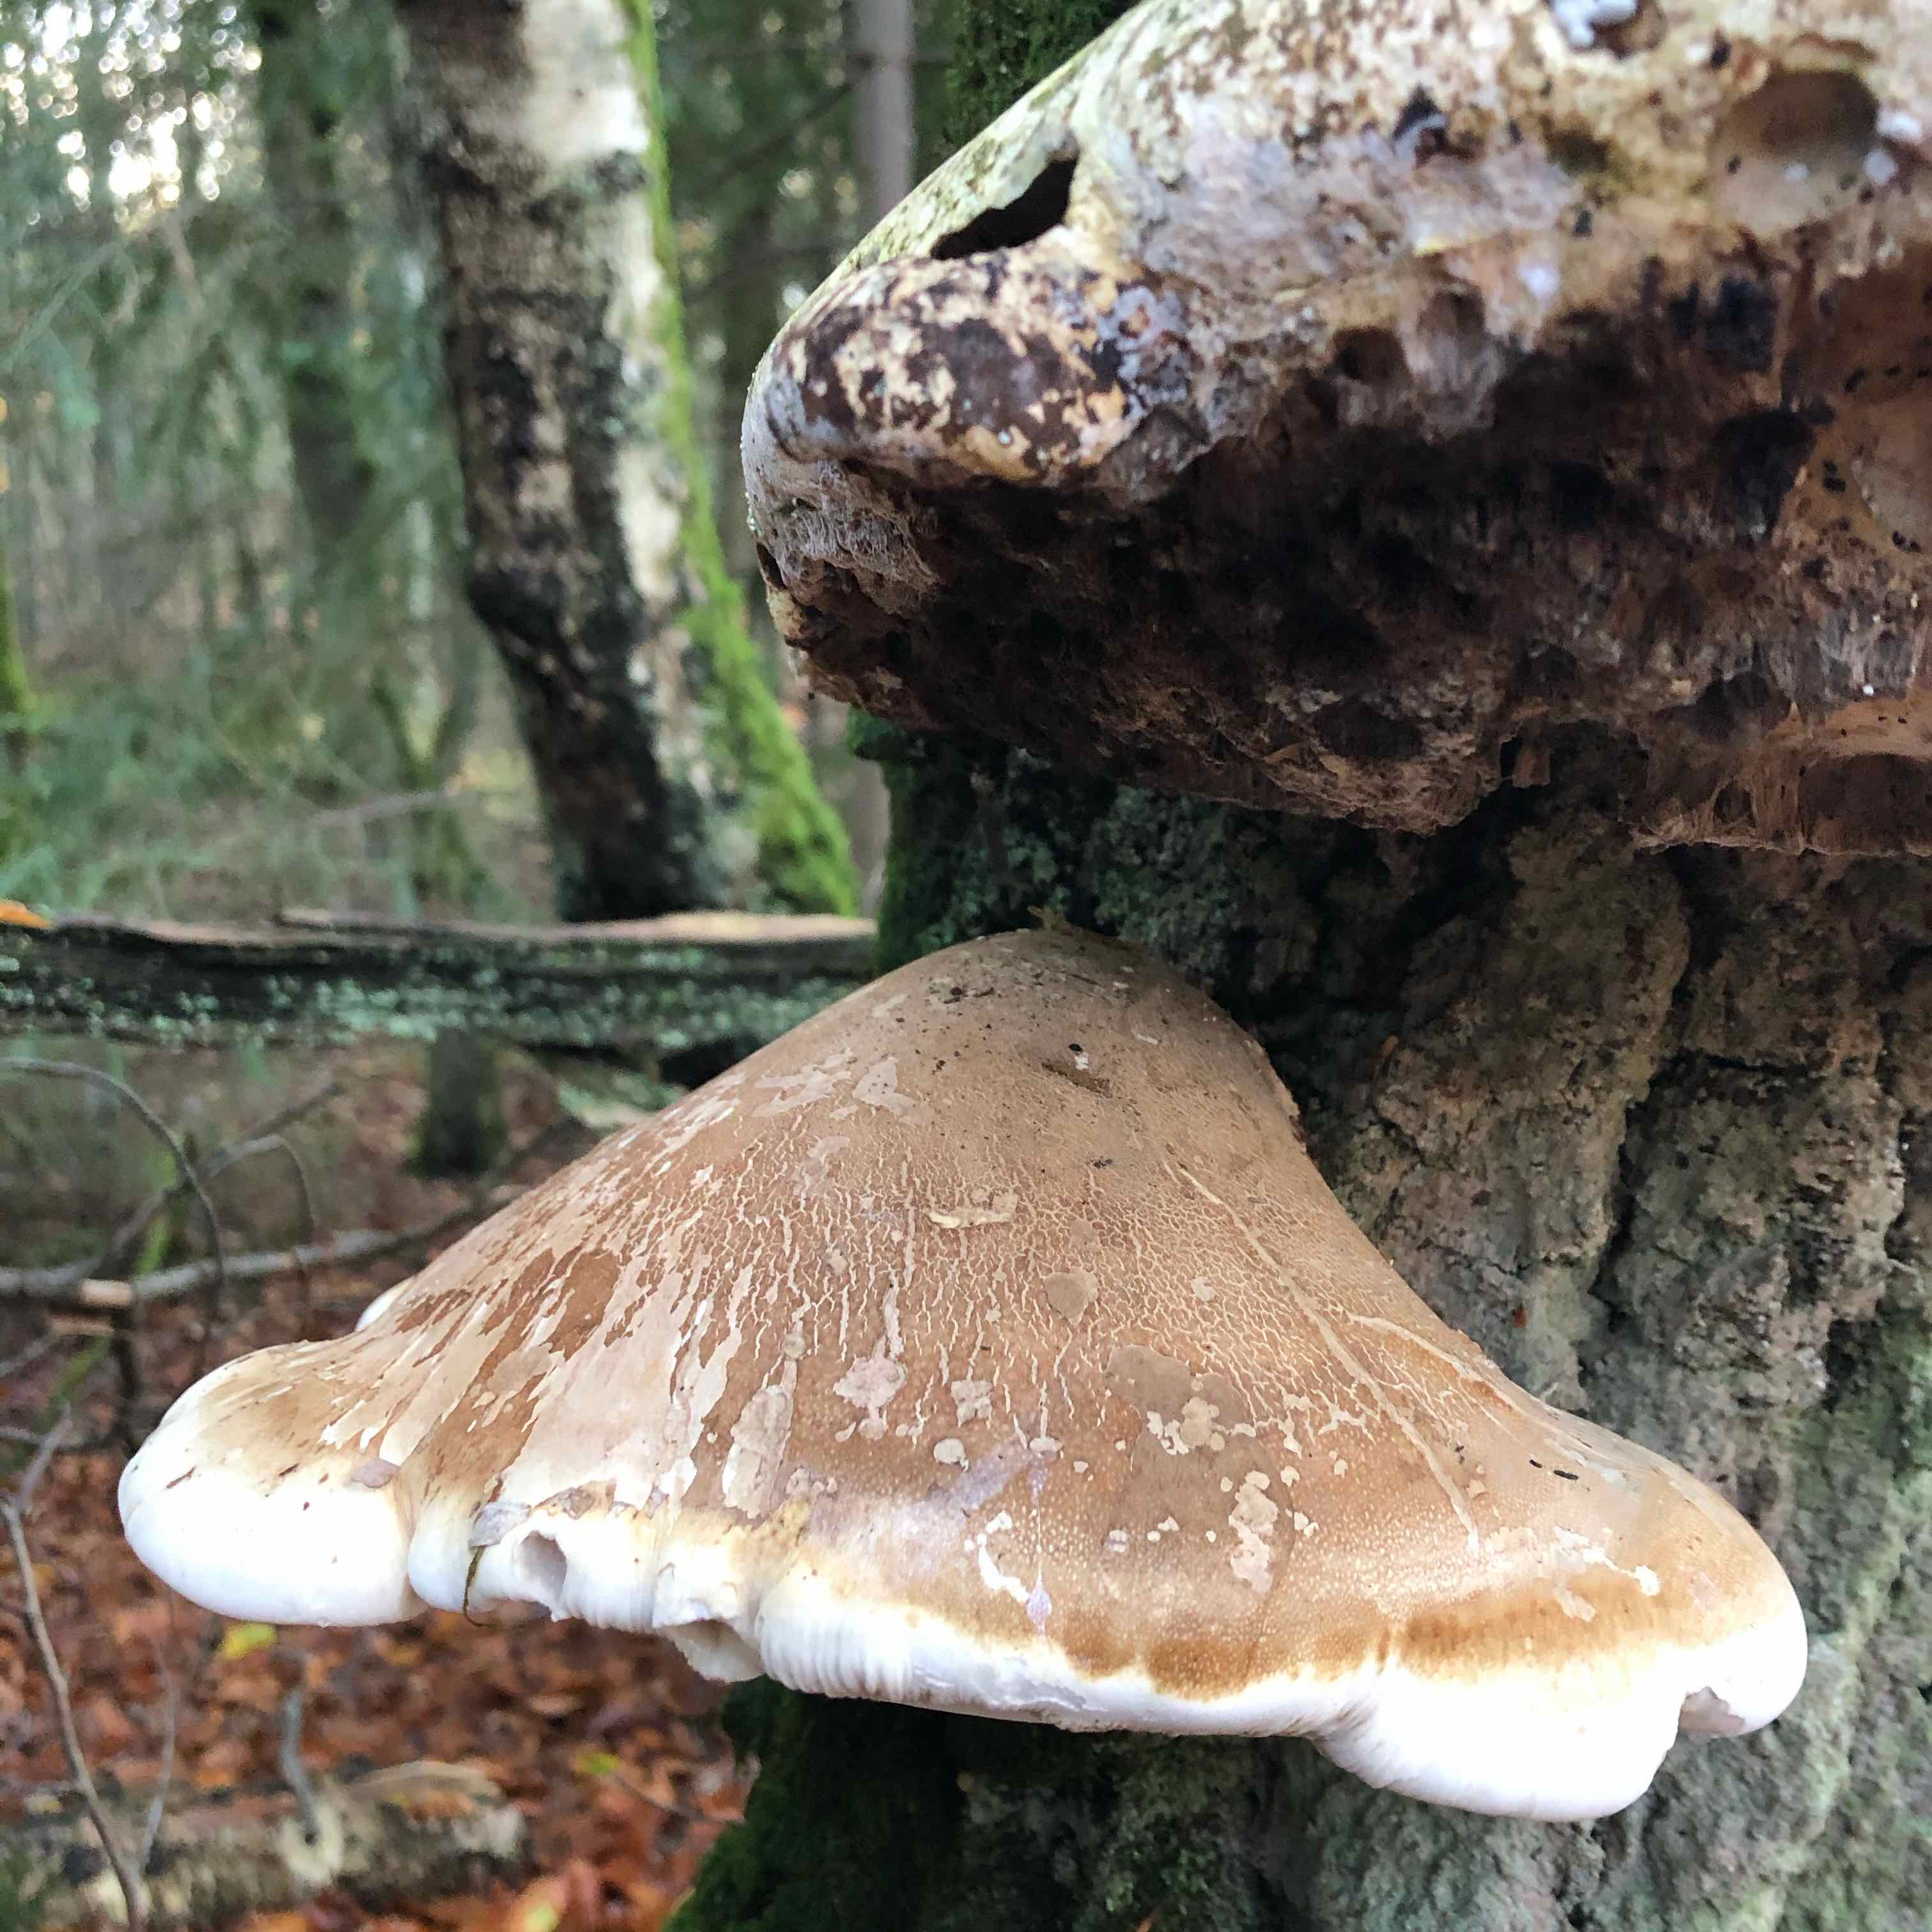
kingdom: Fungi
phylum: Basidiomycota
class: Agaricomycetes
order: Polyporales
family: Fomitopsidaceae
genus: Fomitopsis
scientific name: Fomitopsis betulina
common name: birkeporesvamp
